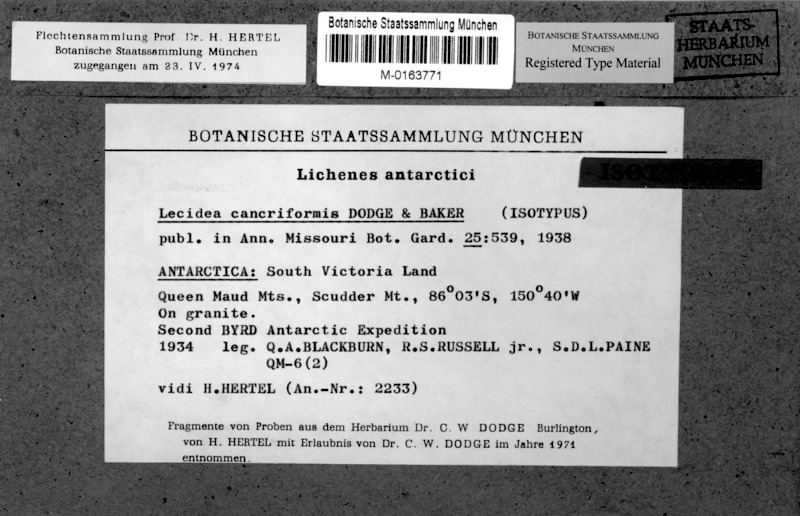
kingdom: Fungi
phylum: Ascomycota
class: Lecanoromycetes
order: Lecideales
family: Lecideaceae
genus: Lecidea
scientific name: Lecidea cancriformis
